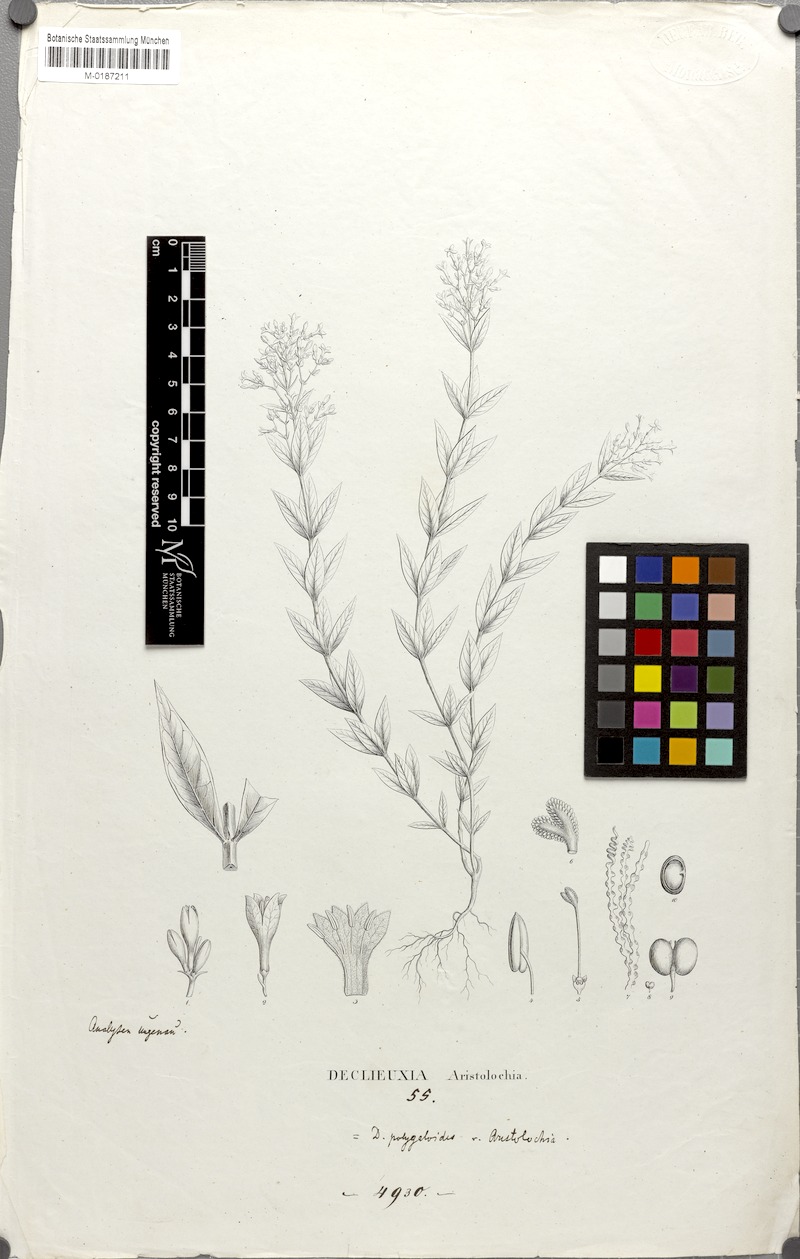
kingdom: Plantae
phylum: Tracheophyta
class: Magnoliopsida
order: Gentianales
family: Rubiaceae
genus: Declieuxia
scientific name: Declieuxia cordigera
